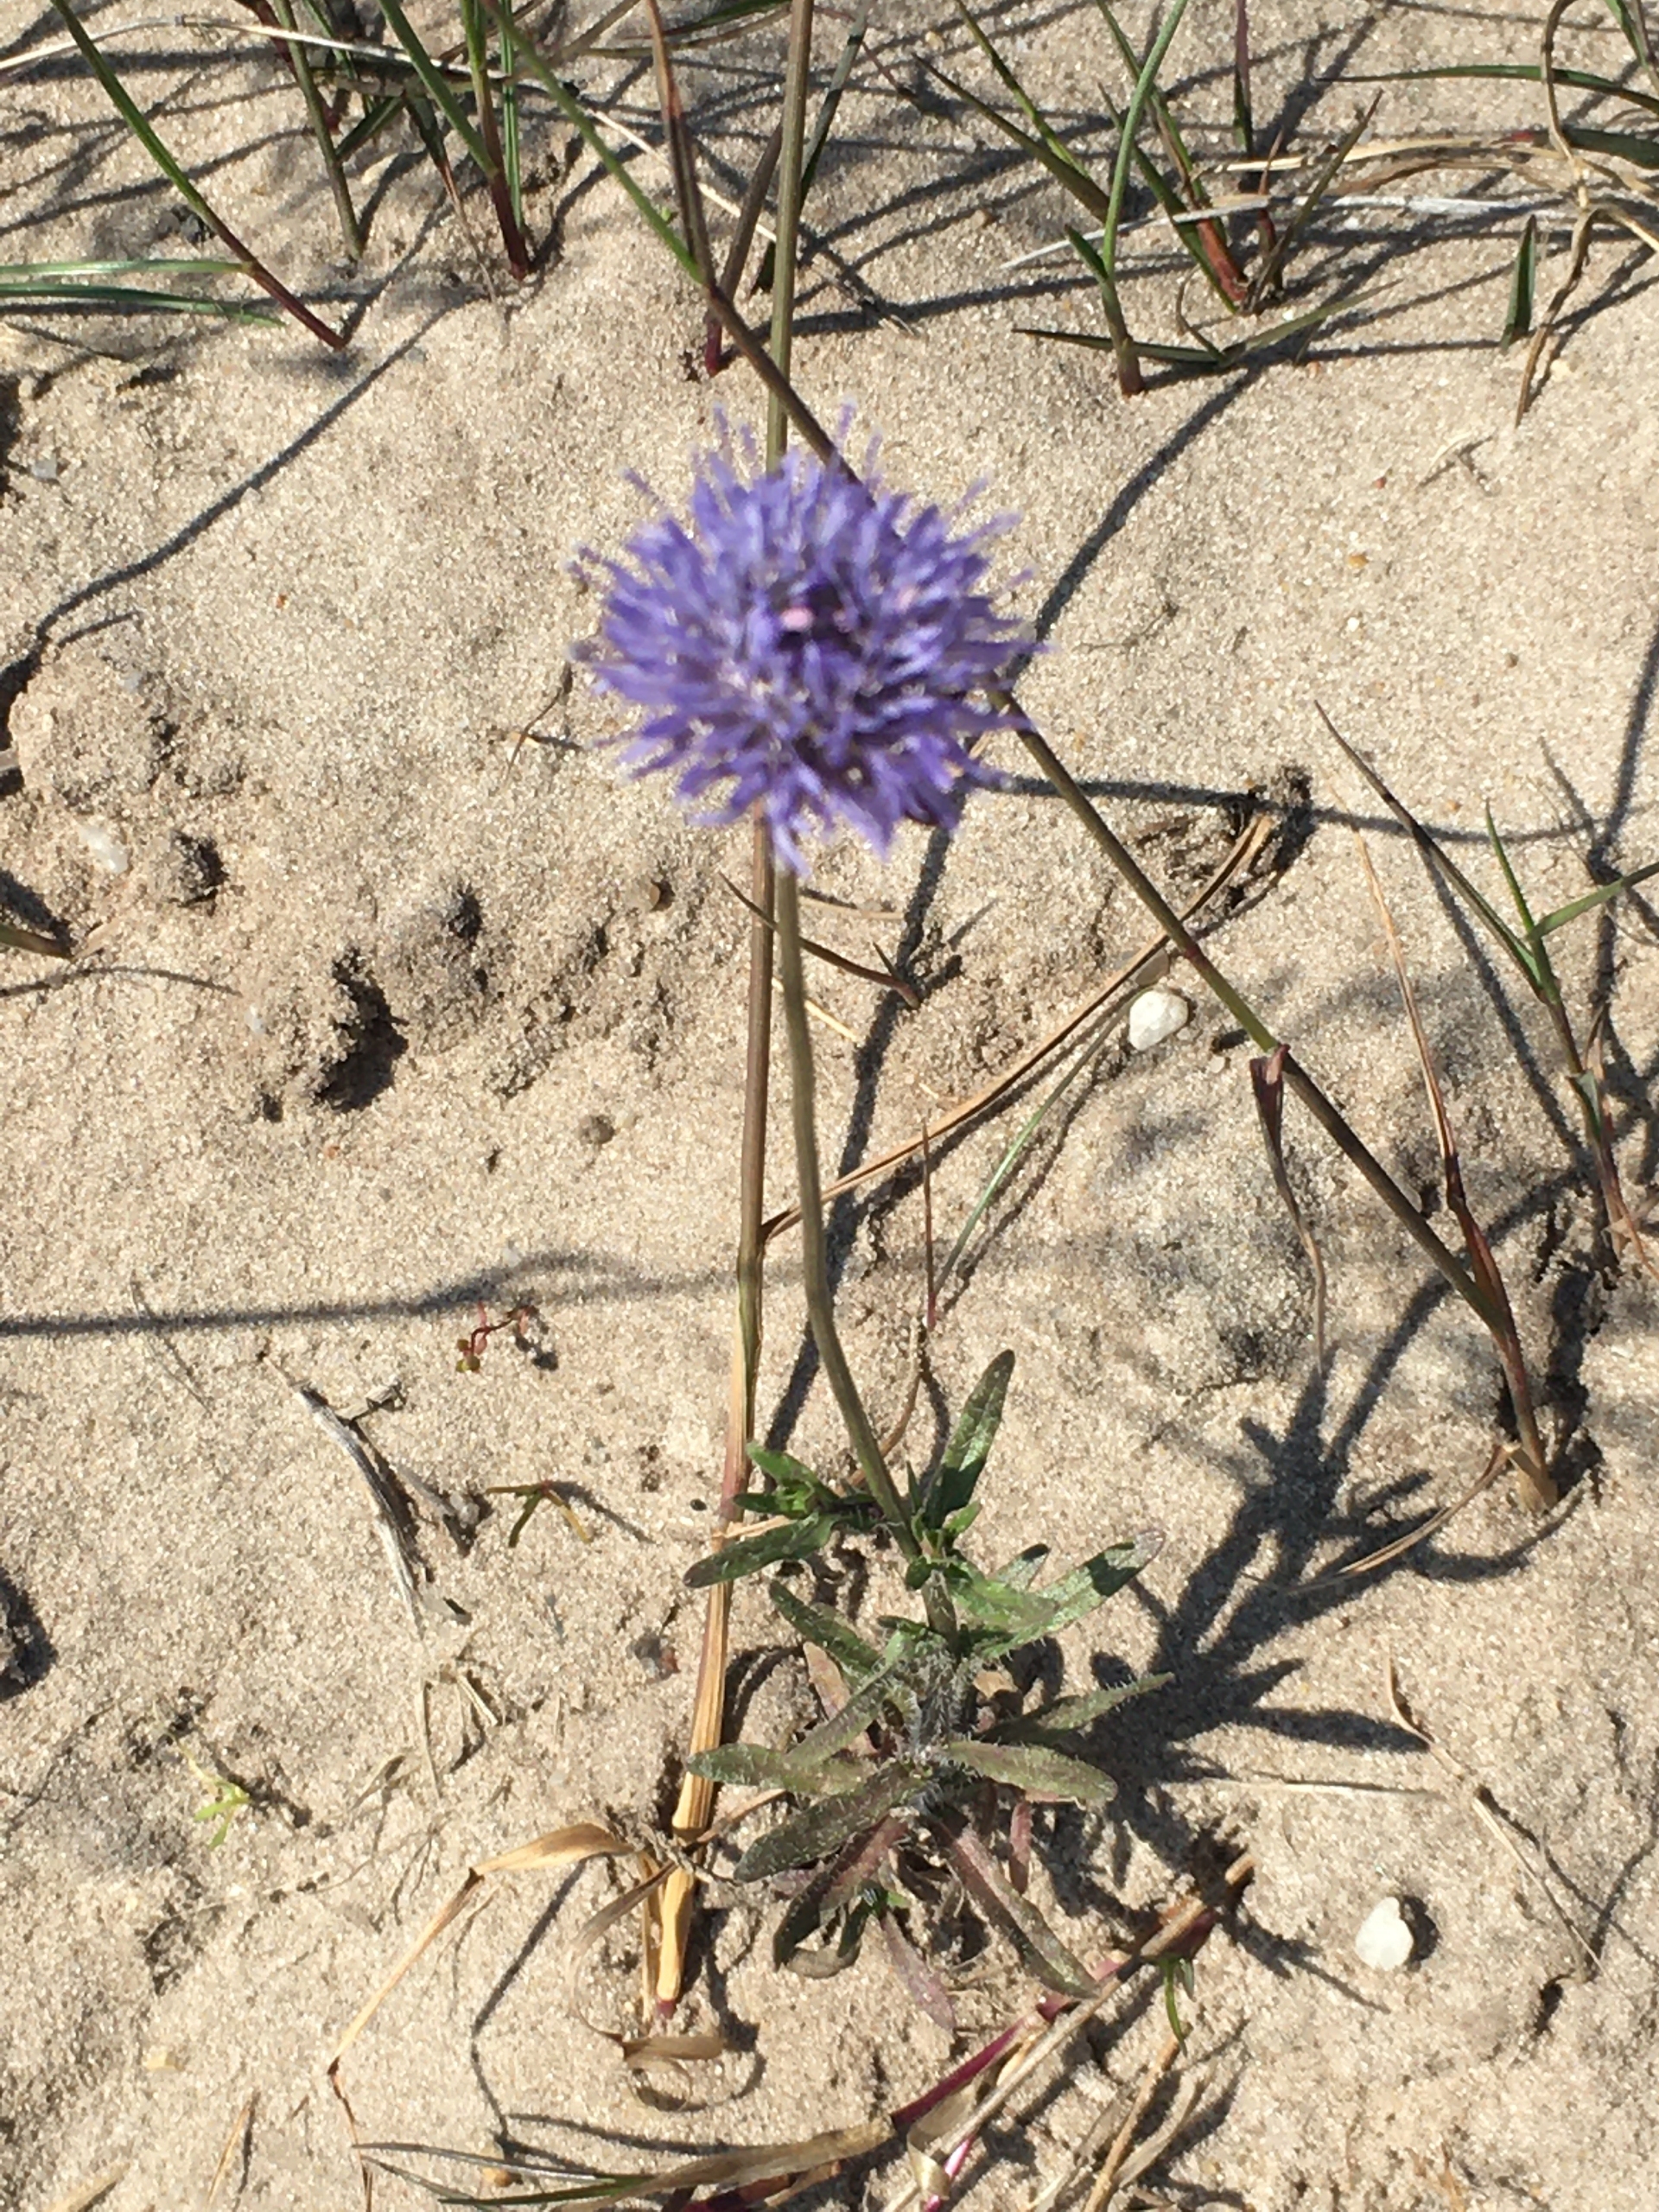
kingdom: Plantae
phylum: Tracheophyta
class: Magnoliopsida
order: Asterales
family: Campanulaceae
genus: Jasione
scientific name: Jasione montana
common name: Blåmunke
